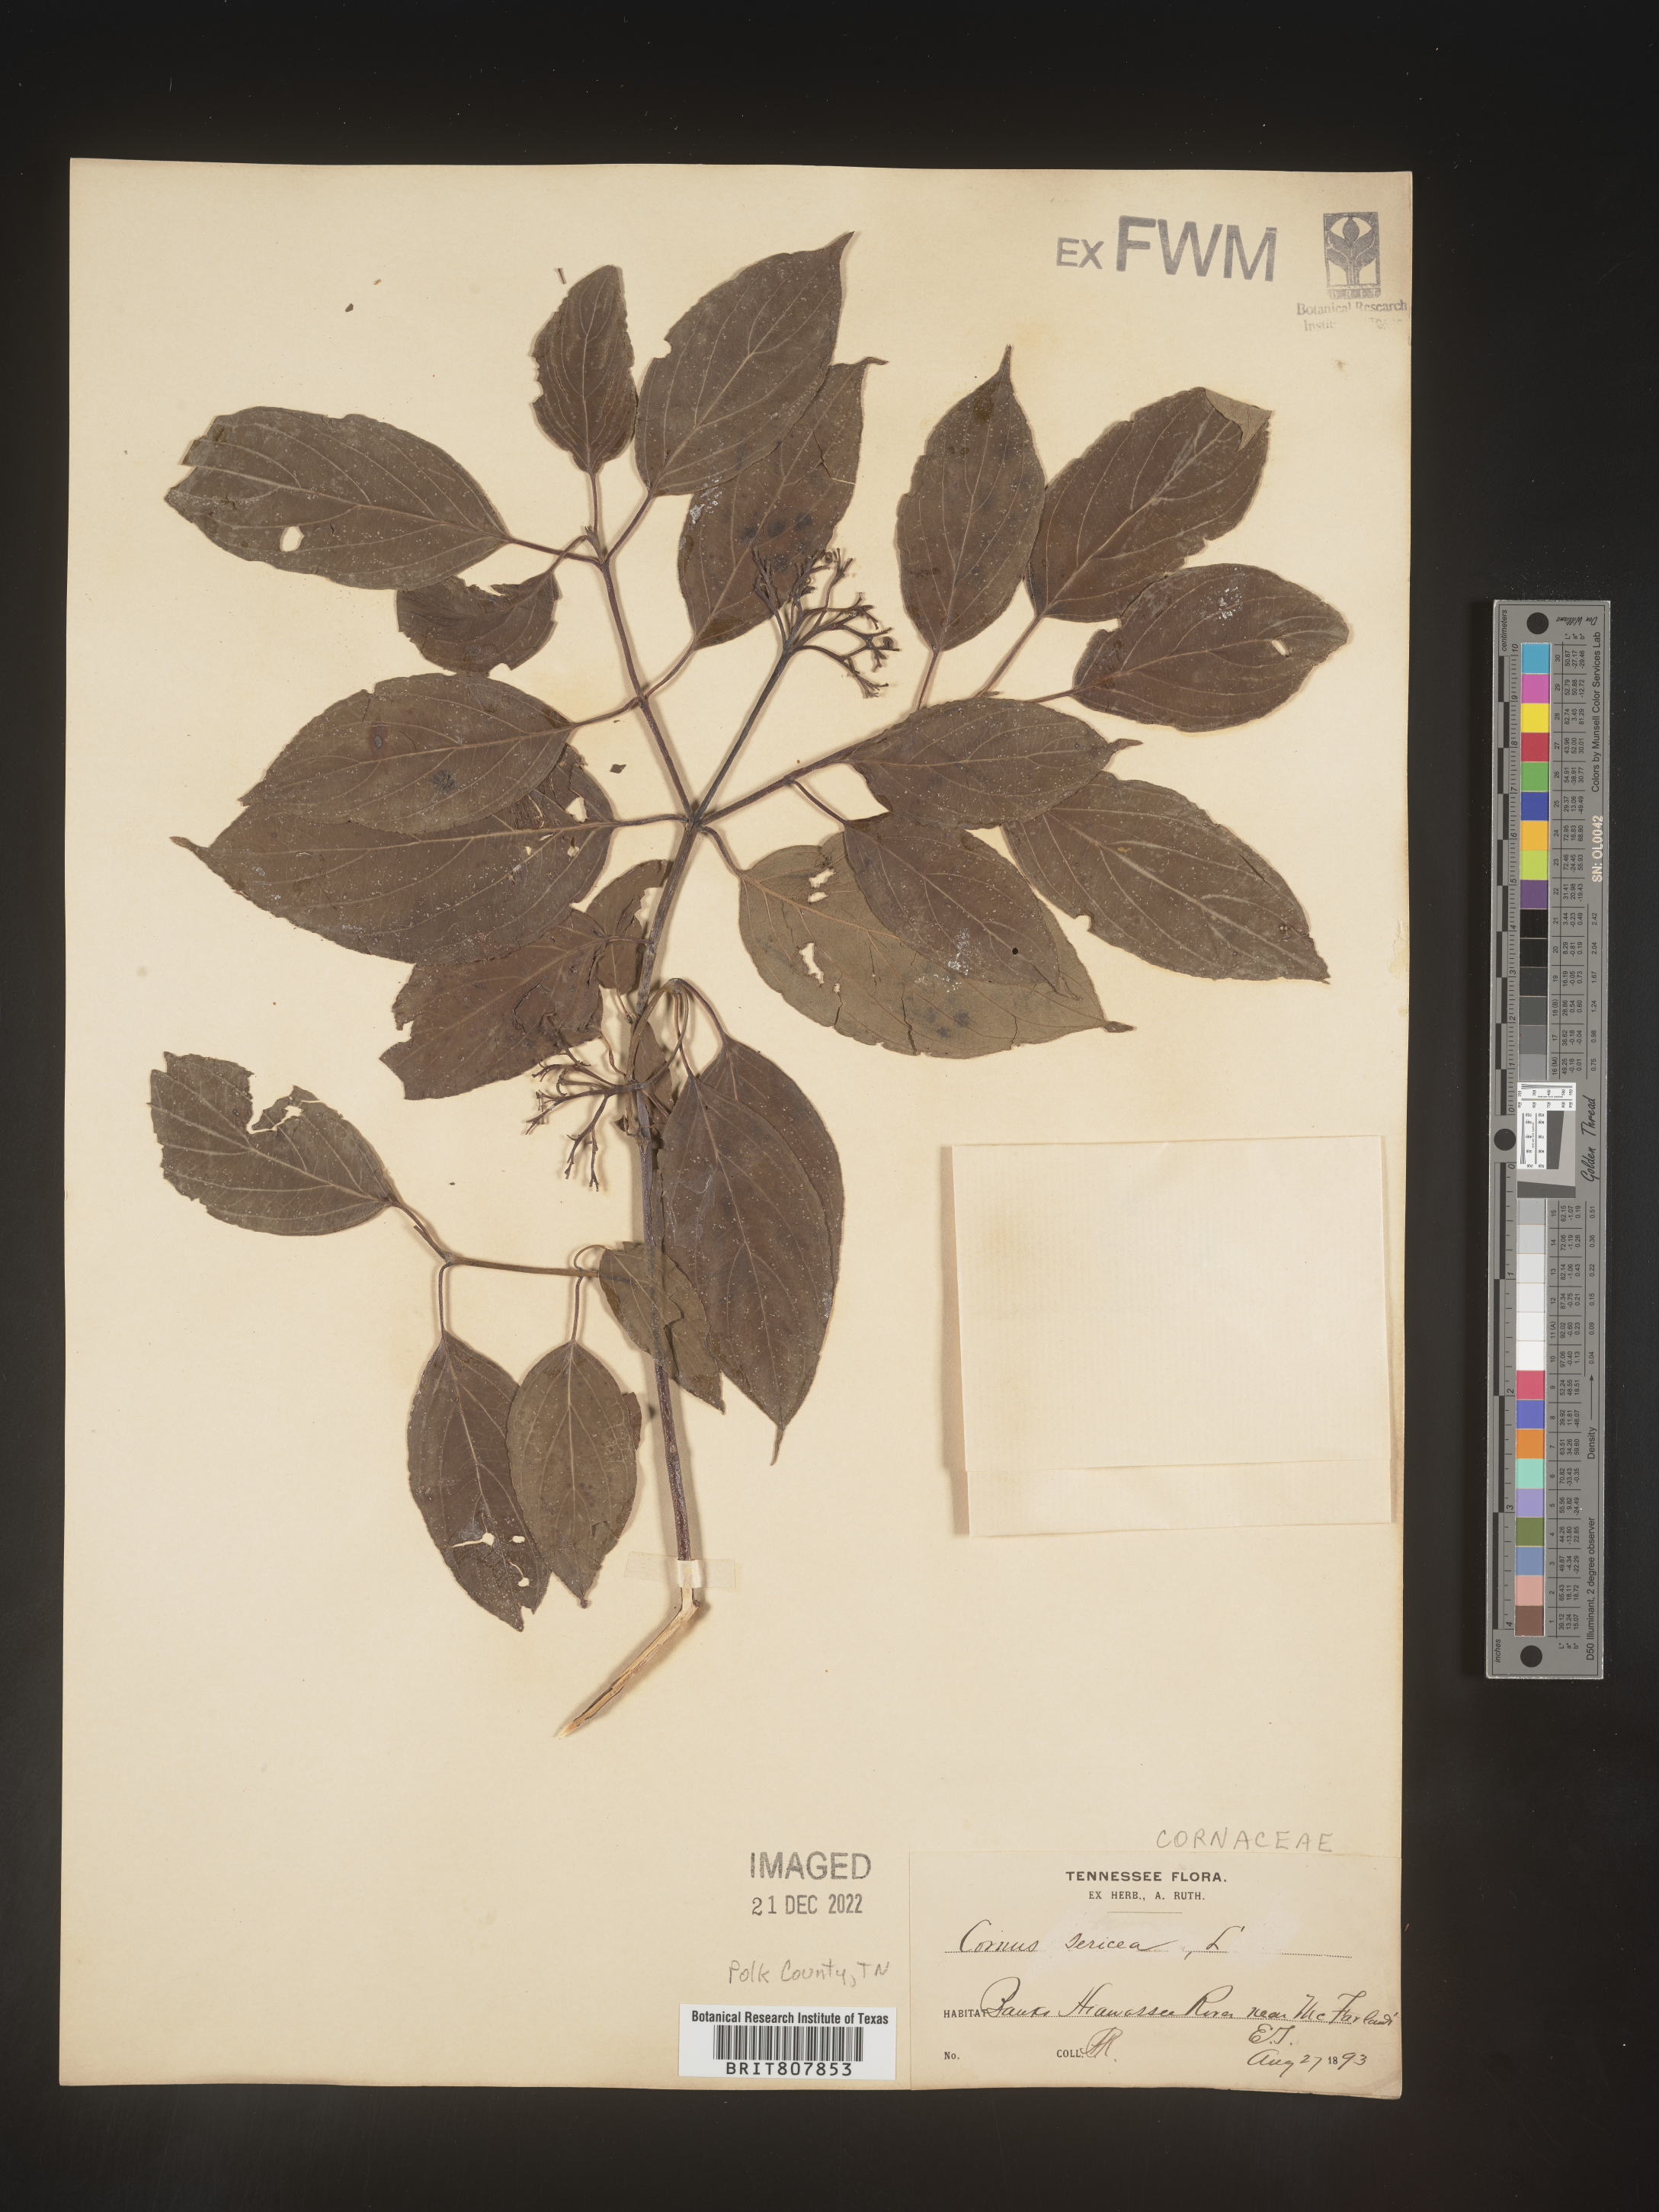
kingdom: Plantae
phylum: Tracheophyta
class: Magnoliopsida
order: Cornales
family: Cornaceae
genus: Cornus
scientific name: Cornus
